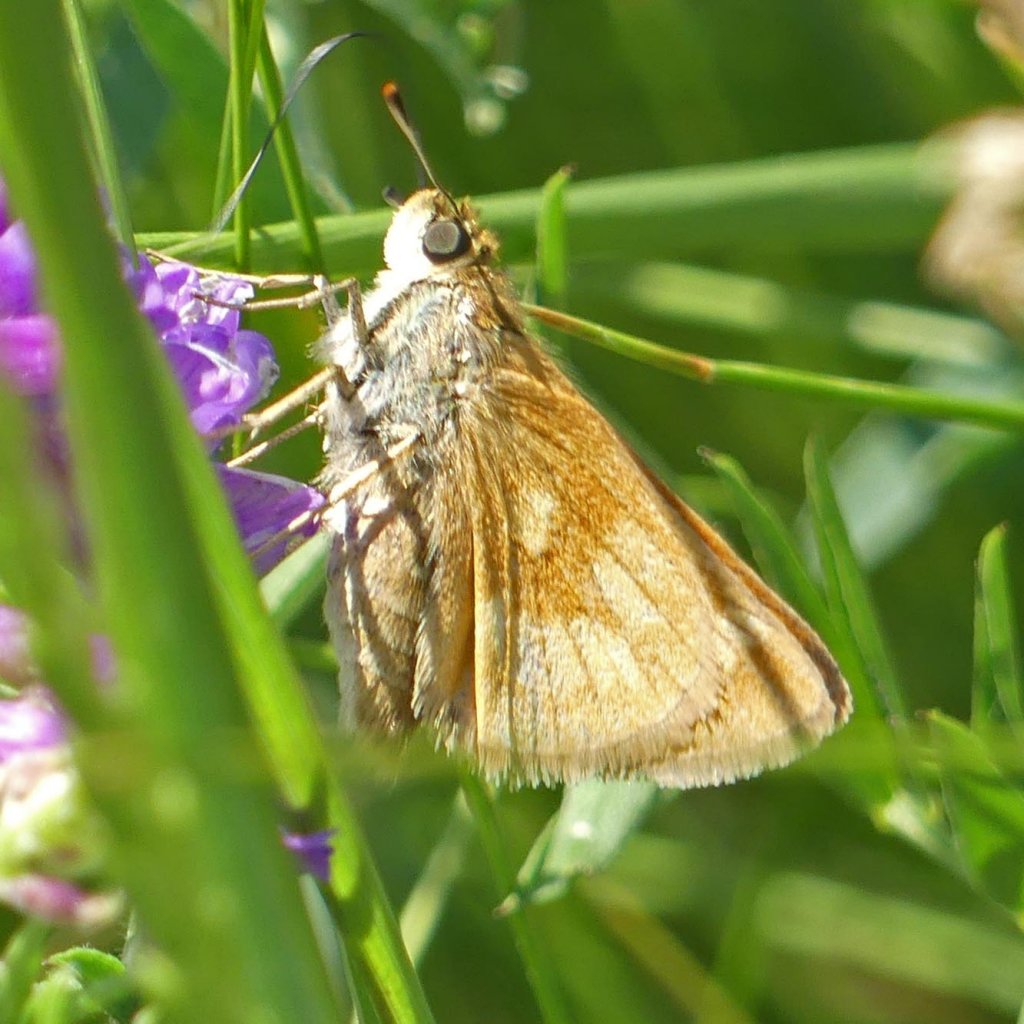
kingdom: Animalia
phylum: Arthropoda
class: Insecta
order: Lepidoptera
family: Hesperiidae
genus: Polites
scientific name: Polites
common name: Long Dash Skipper
